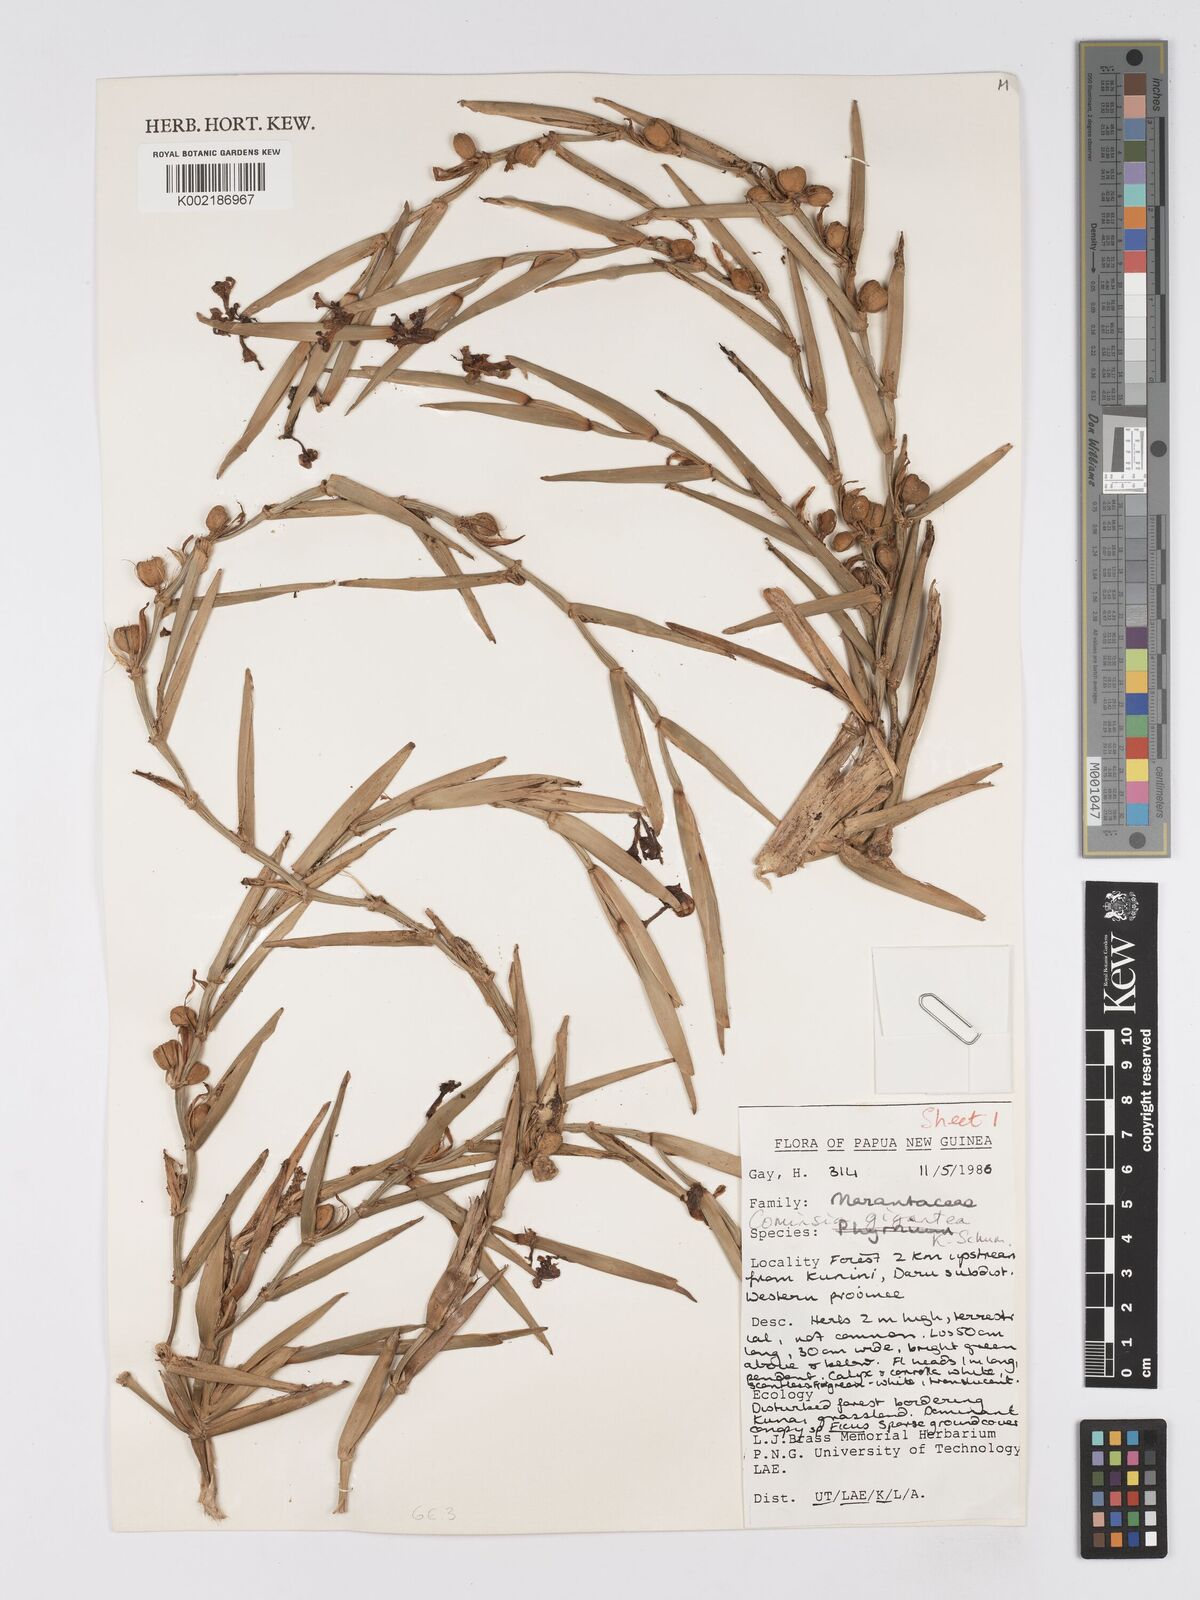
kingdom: Plantae
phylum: Tracheophyta
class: Liliopsida
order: Zingiberales
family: Marantaceae
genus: Phrynium
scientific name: Phrynium giganteum
